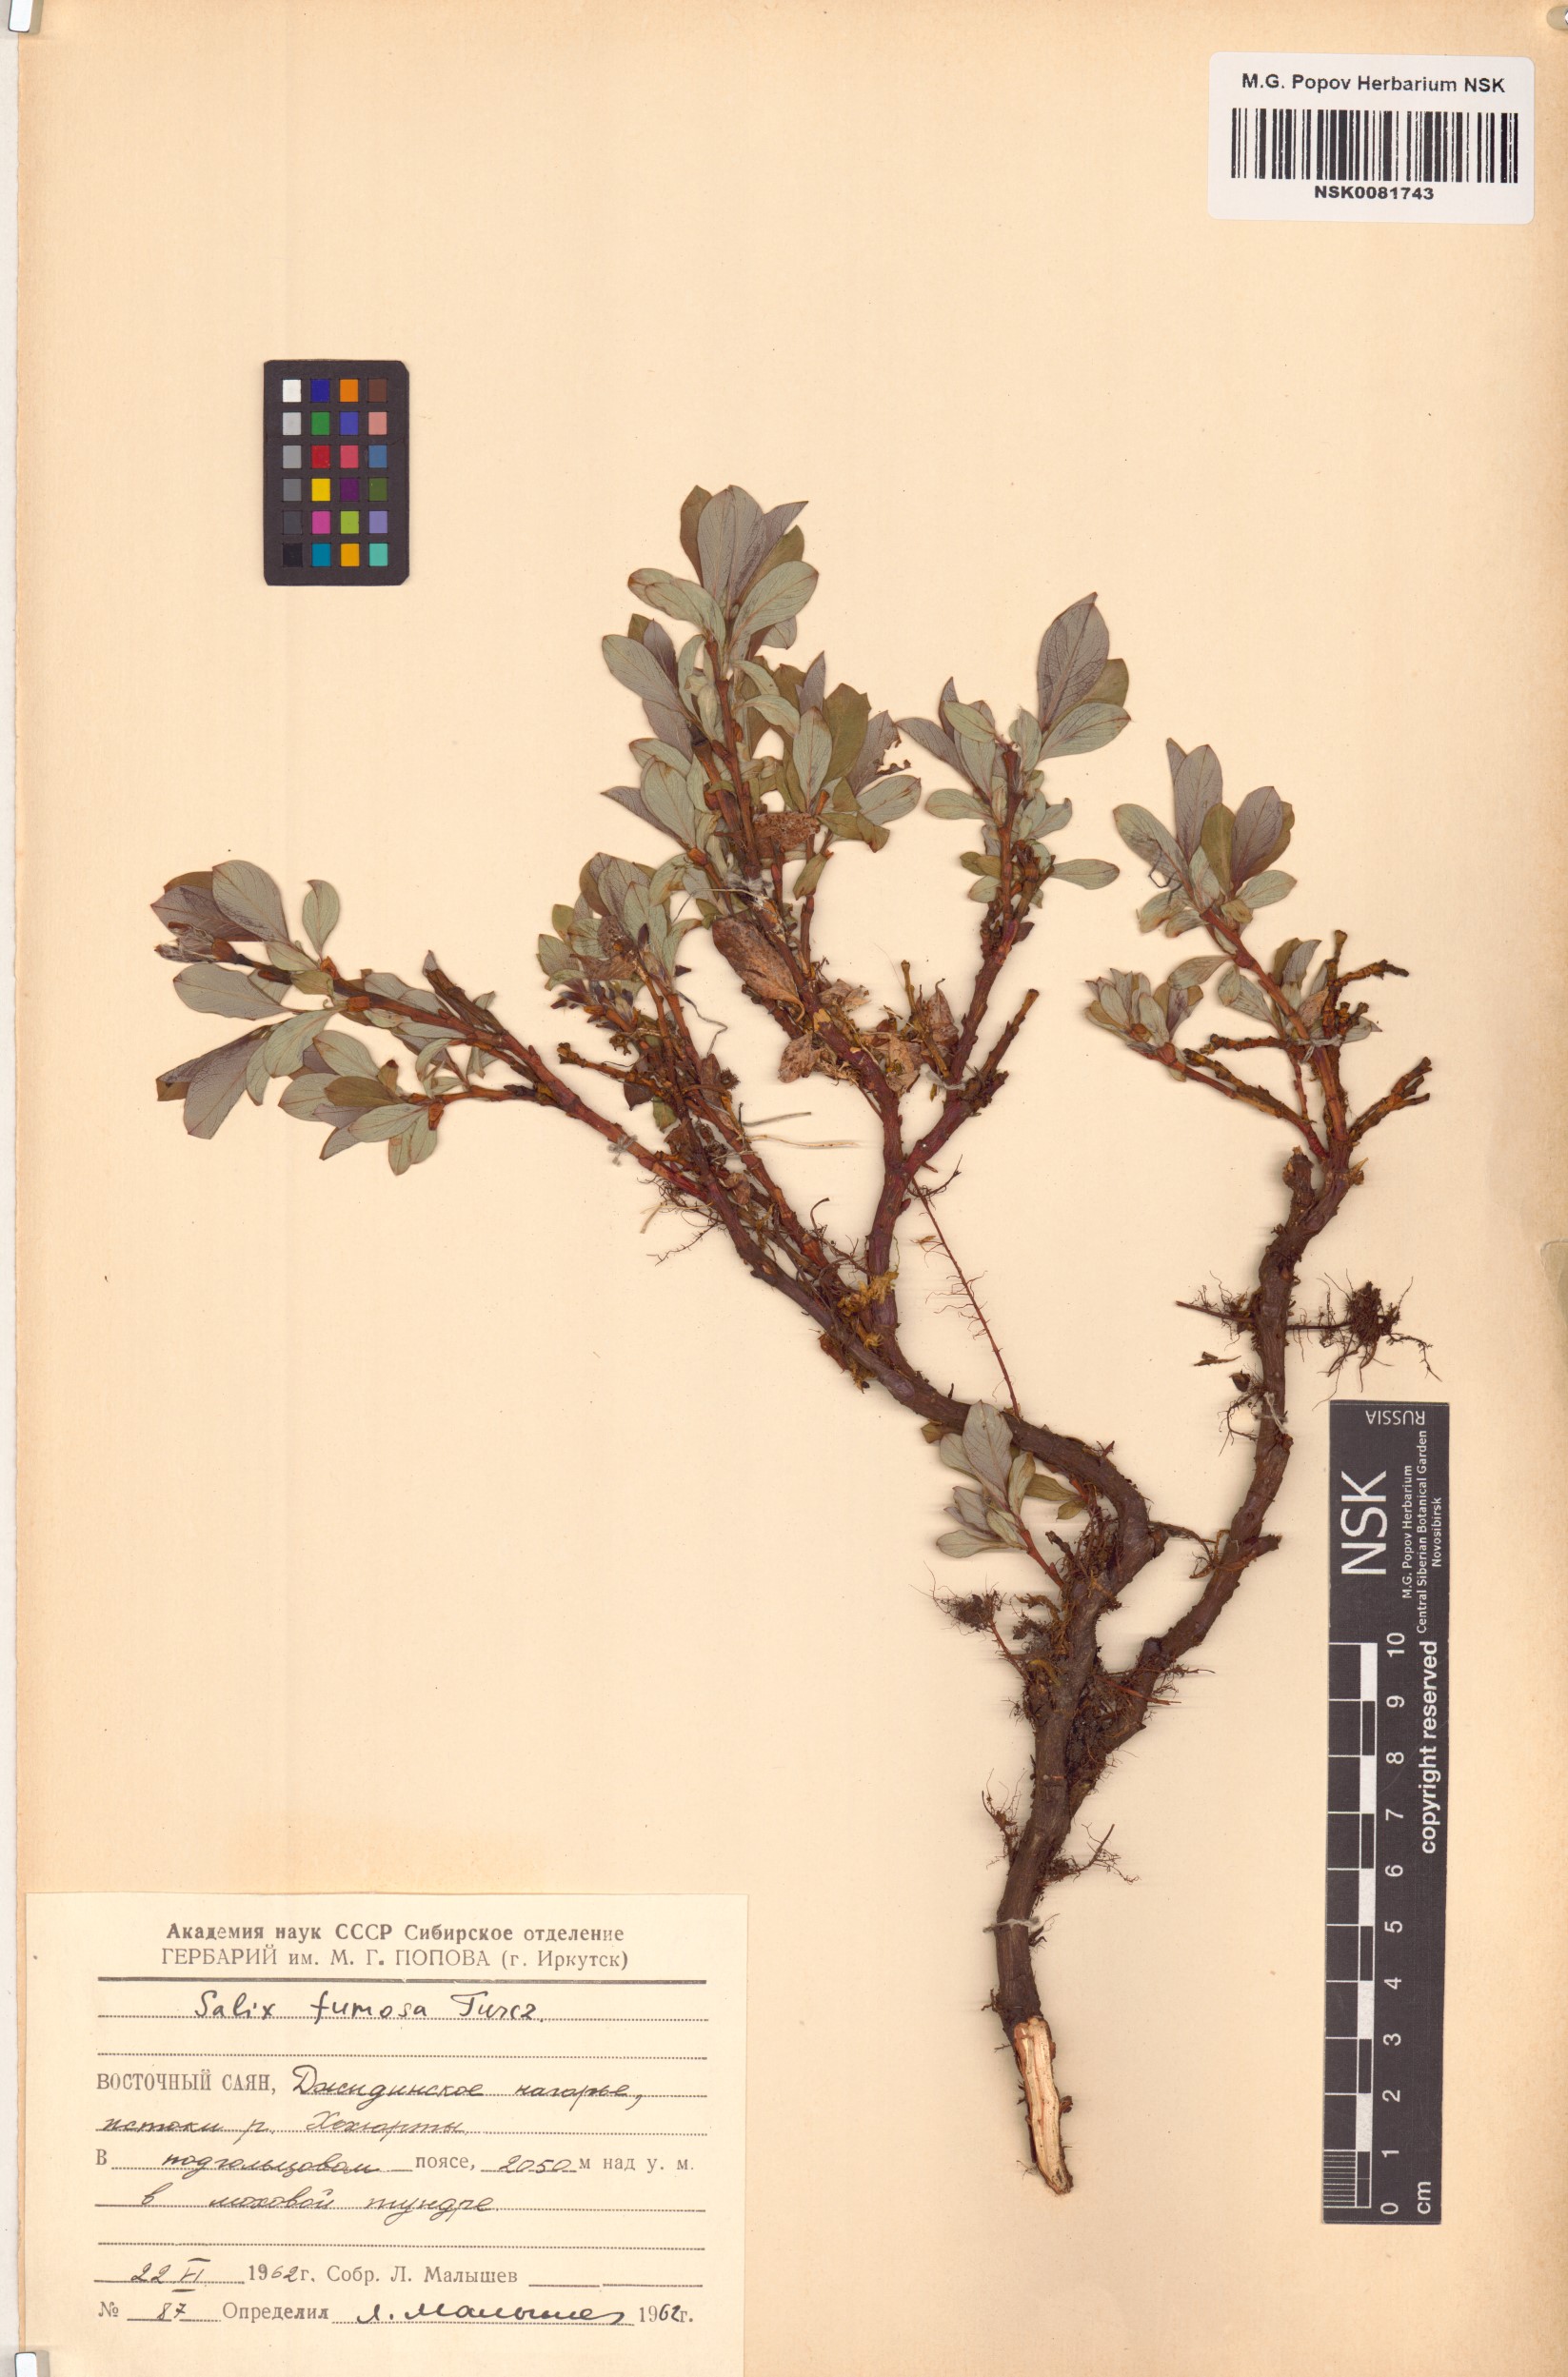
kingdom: Plantae
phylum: Tracheophyta
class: Magnoliopsida
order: Malpighiales
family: Salicaceae
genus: Salix
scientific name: Salix saxatilis
